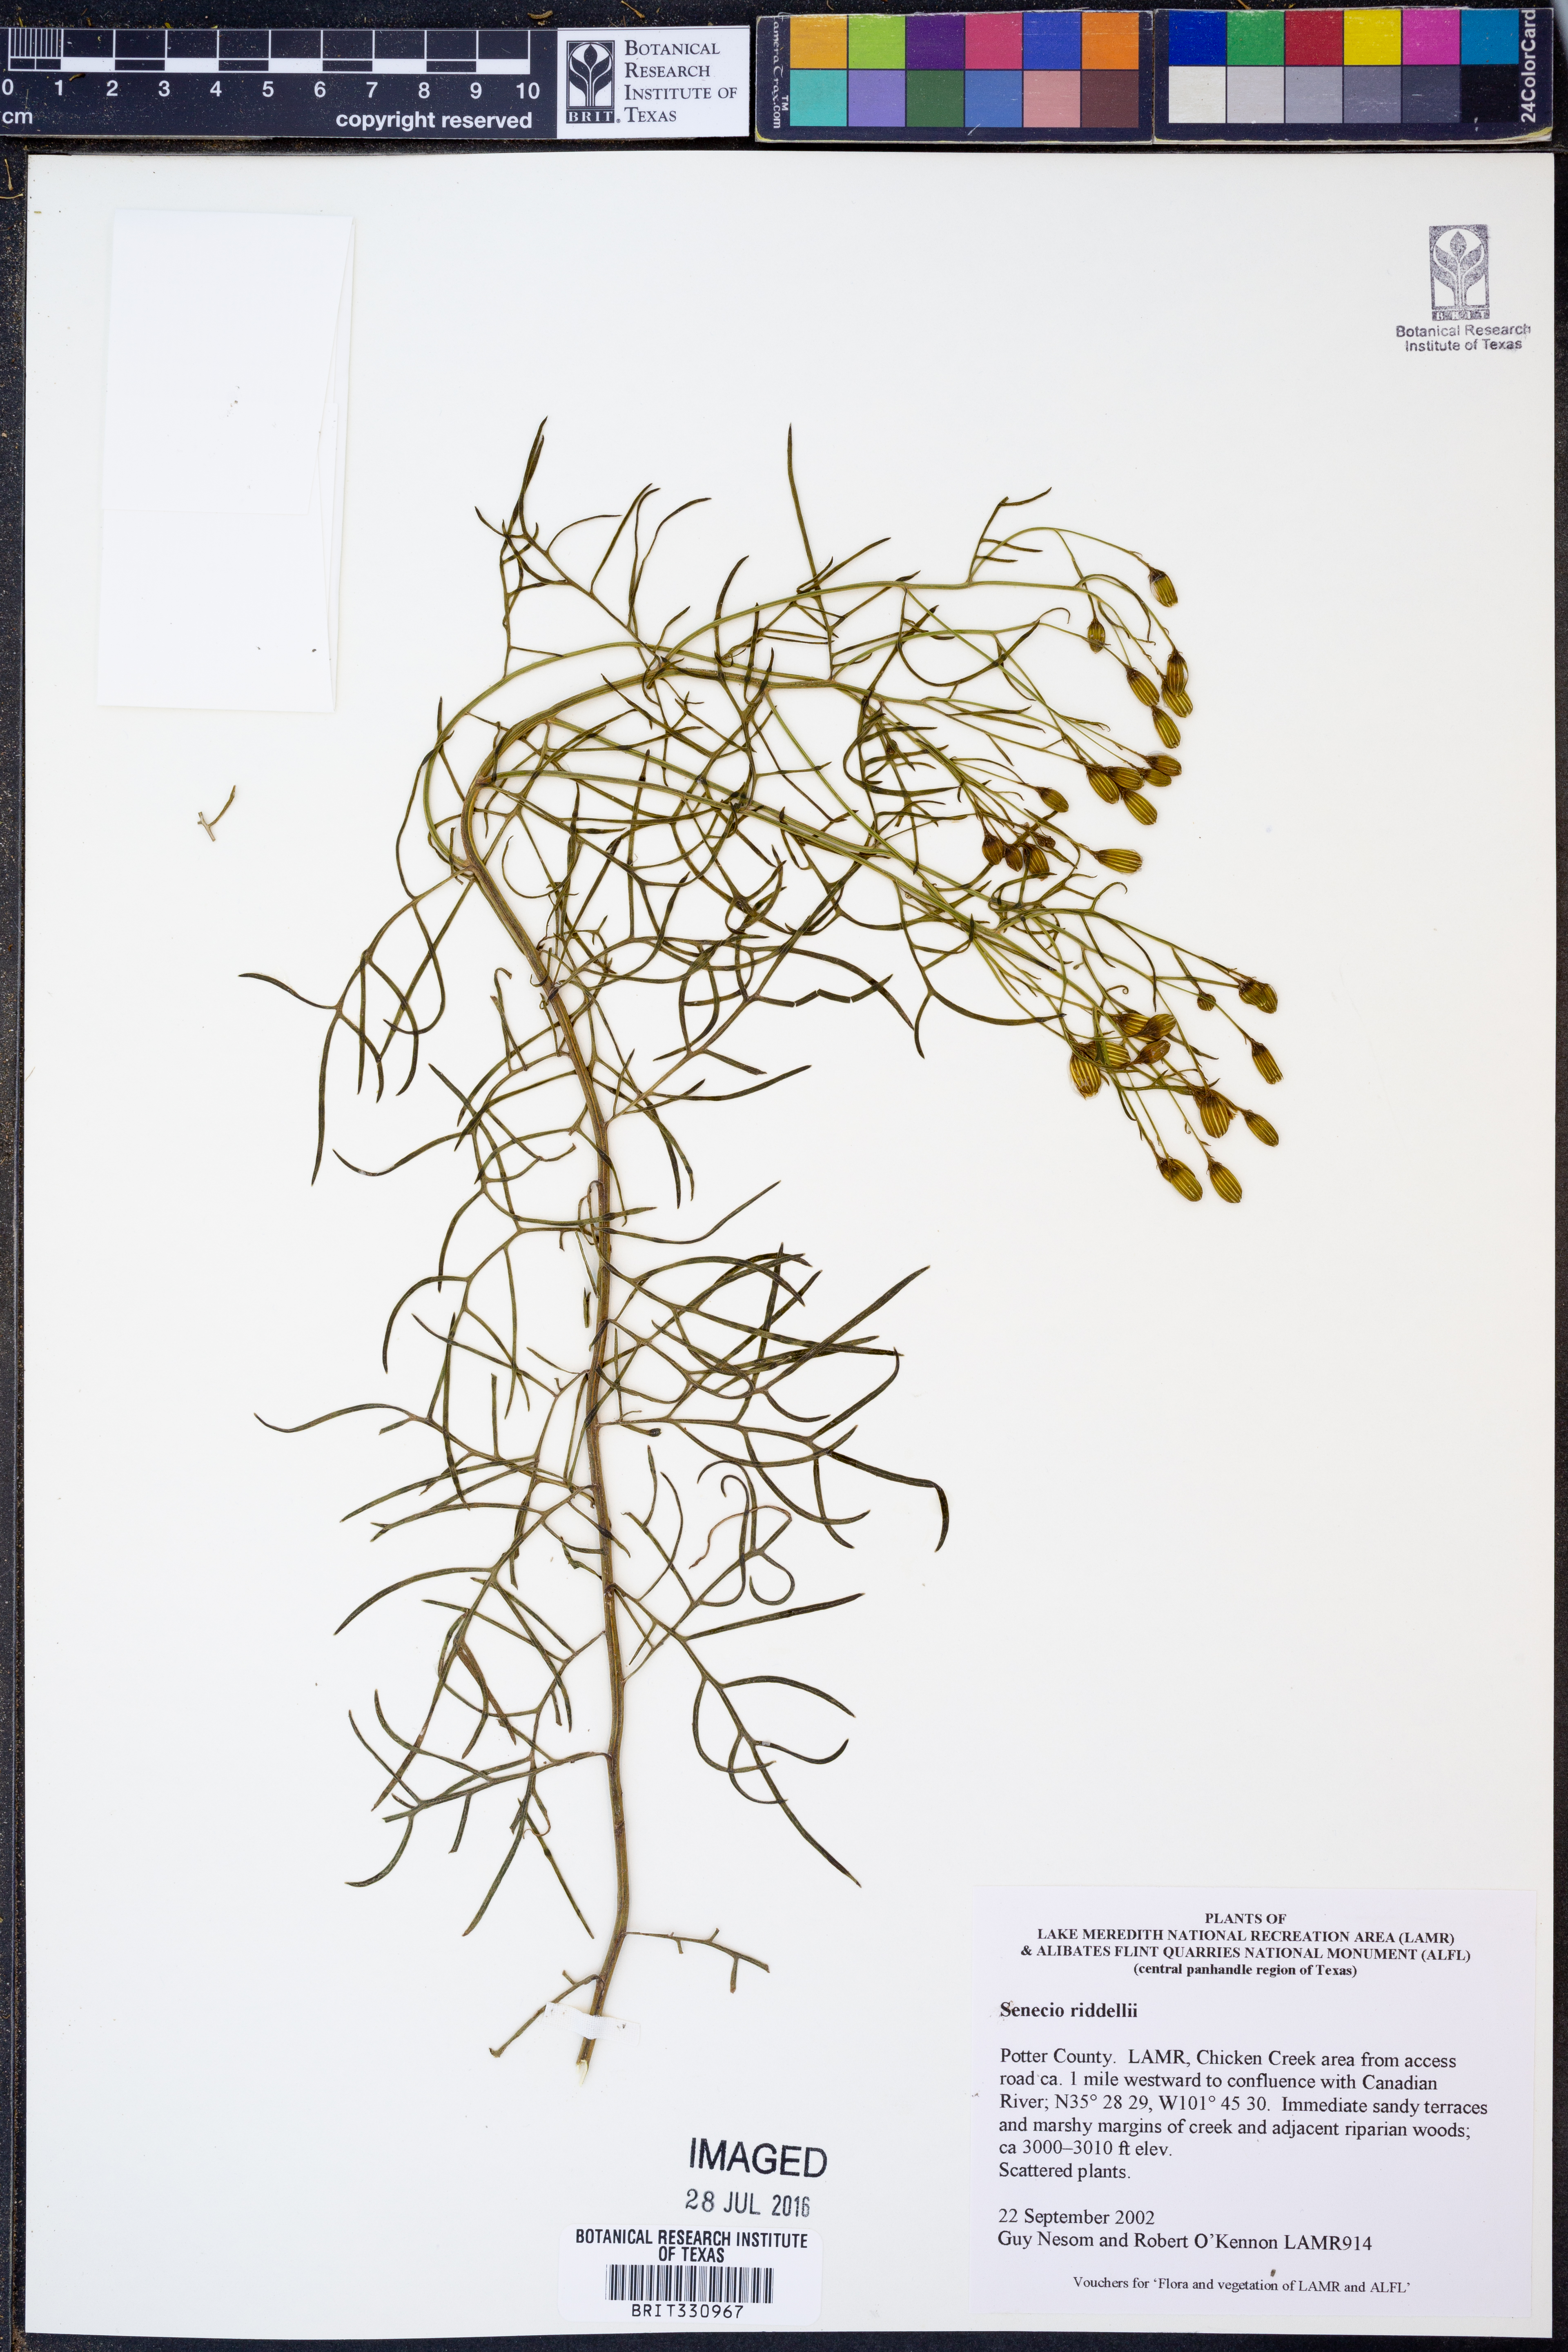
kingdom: Plantae
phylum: Tracheophyta
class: Magnoliopsida
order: Asterales
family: Asteraceae
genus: Senecio
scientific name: Senecio riddellii
